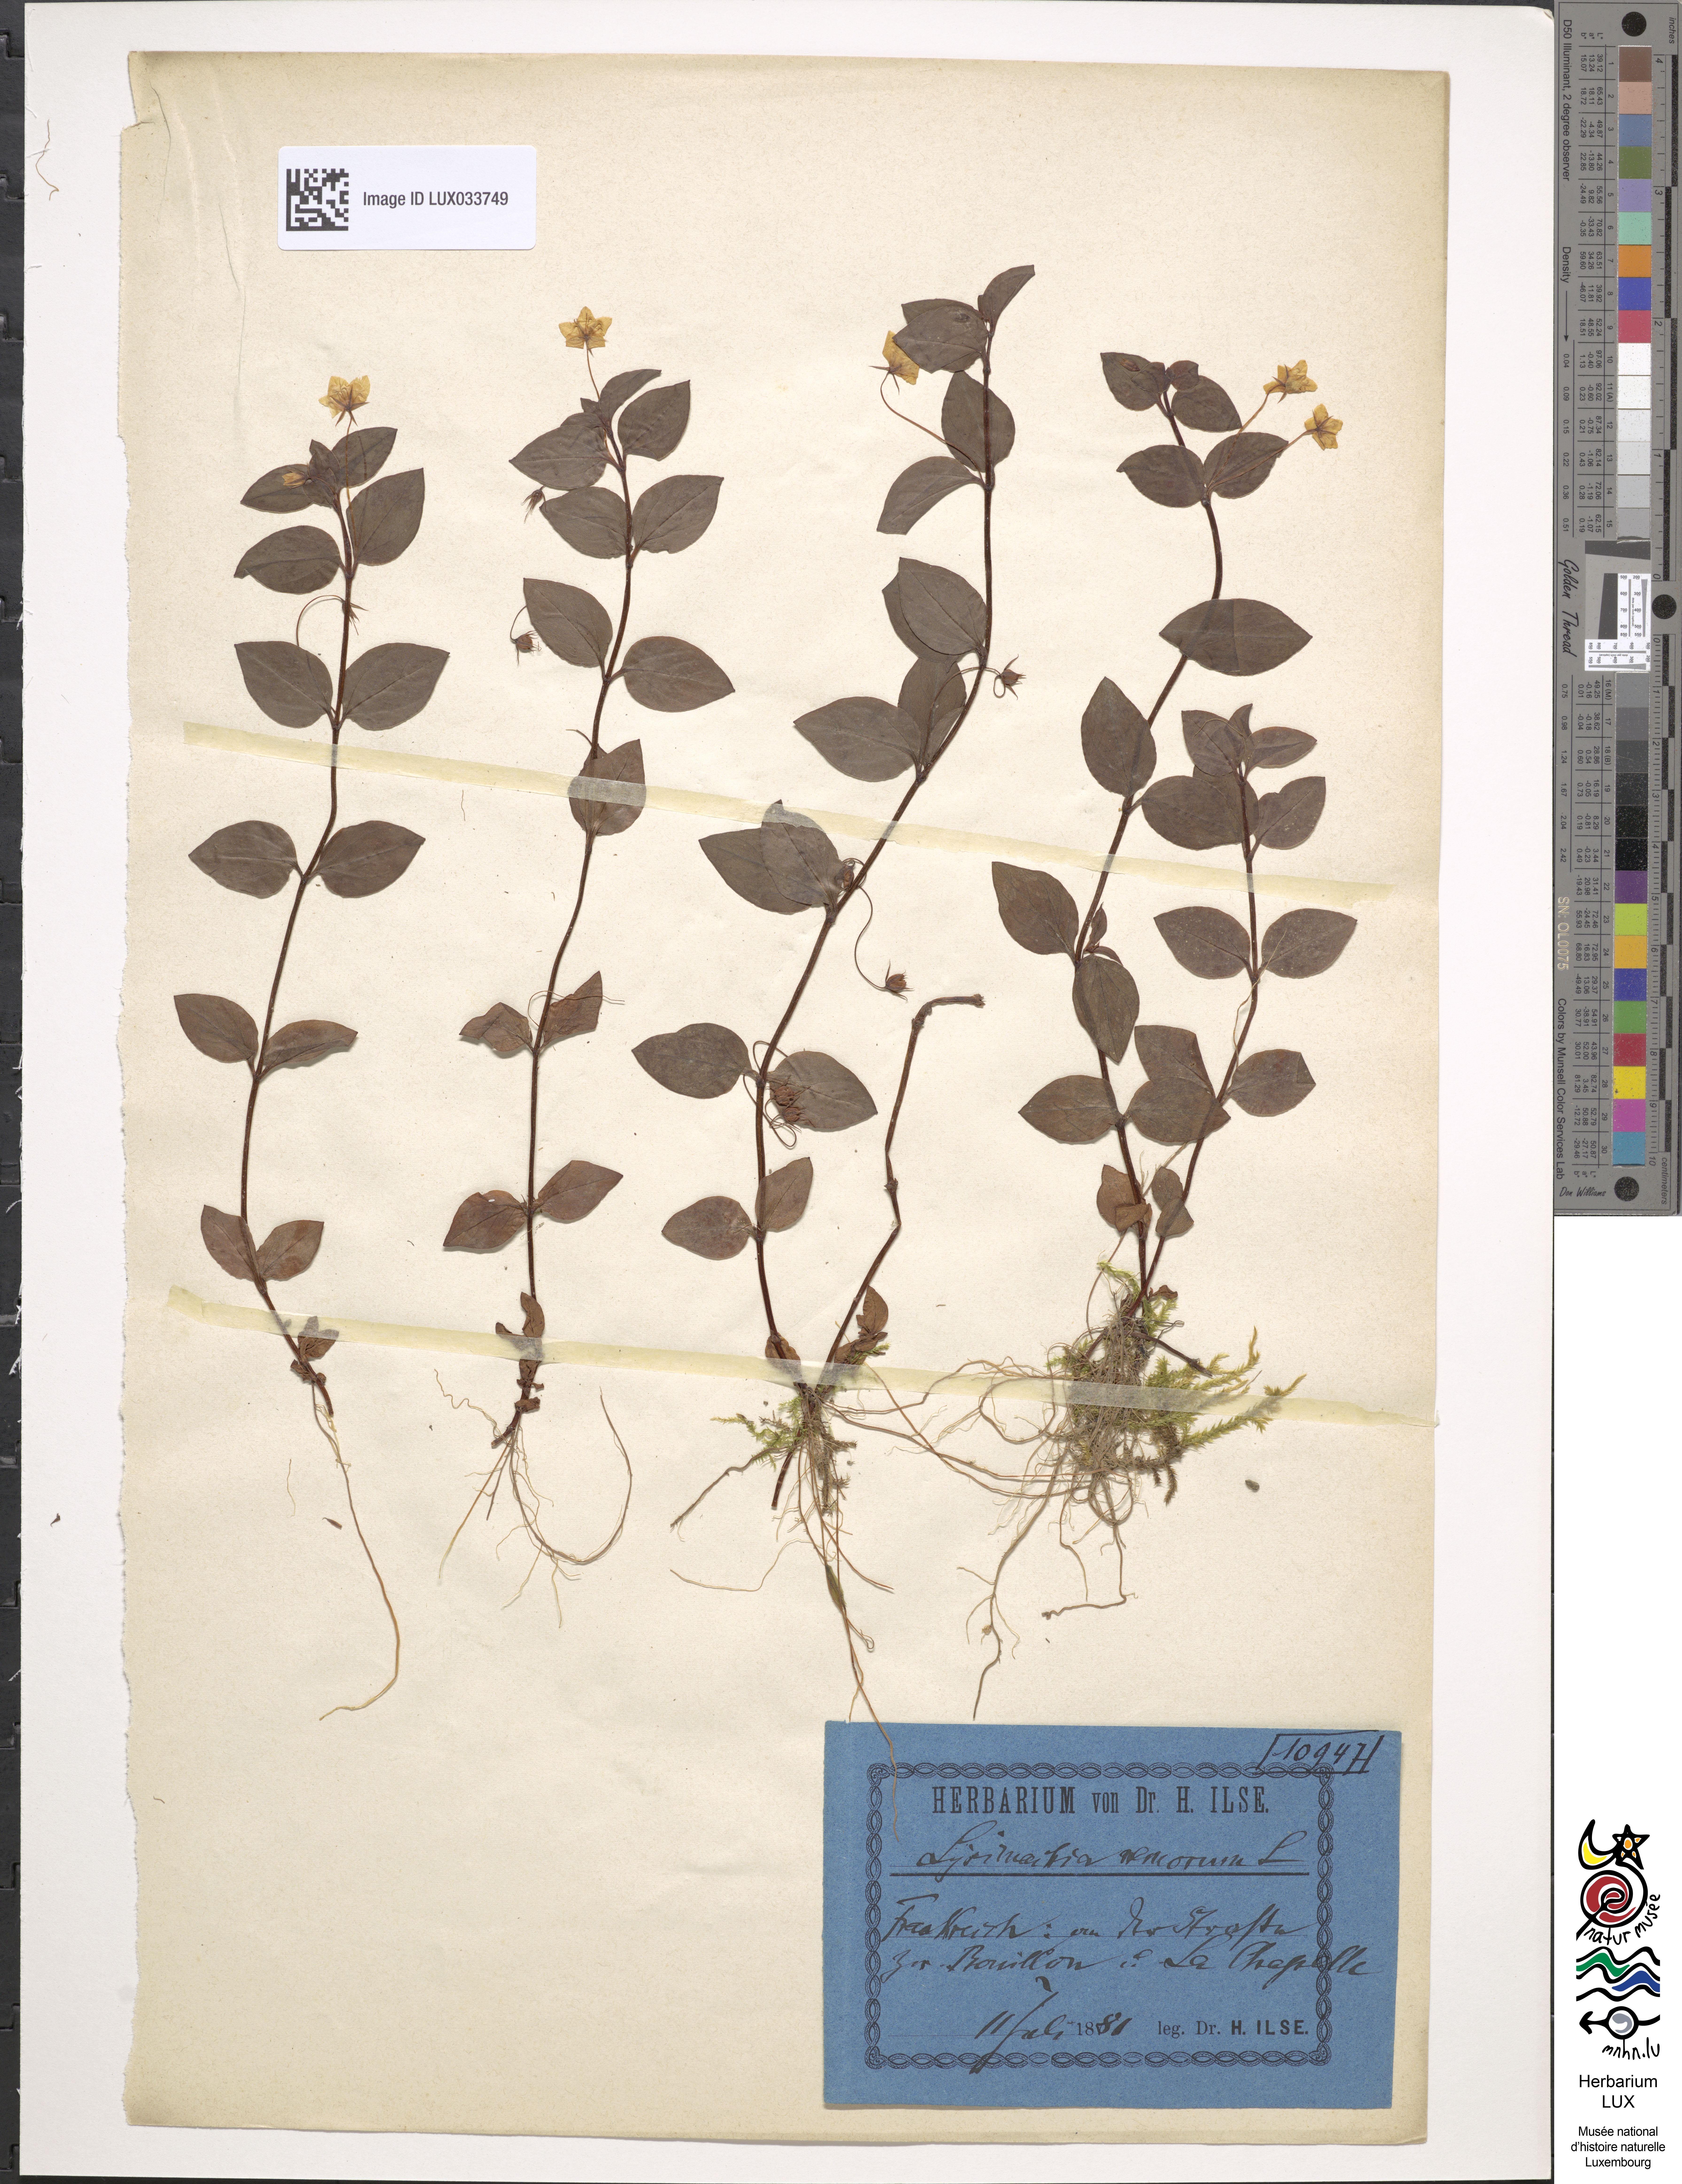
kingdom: Plantae
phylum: Tracheophyta
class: Magnoliopsida
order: Ericales
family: Primulaceae
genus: Lysimachia
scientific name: Lysimachia nemorum
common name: Yellow pimpernel
